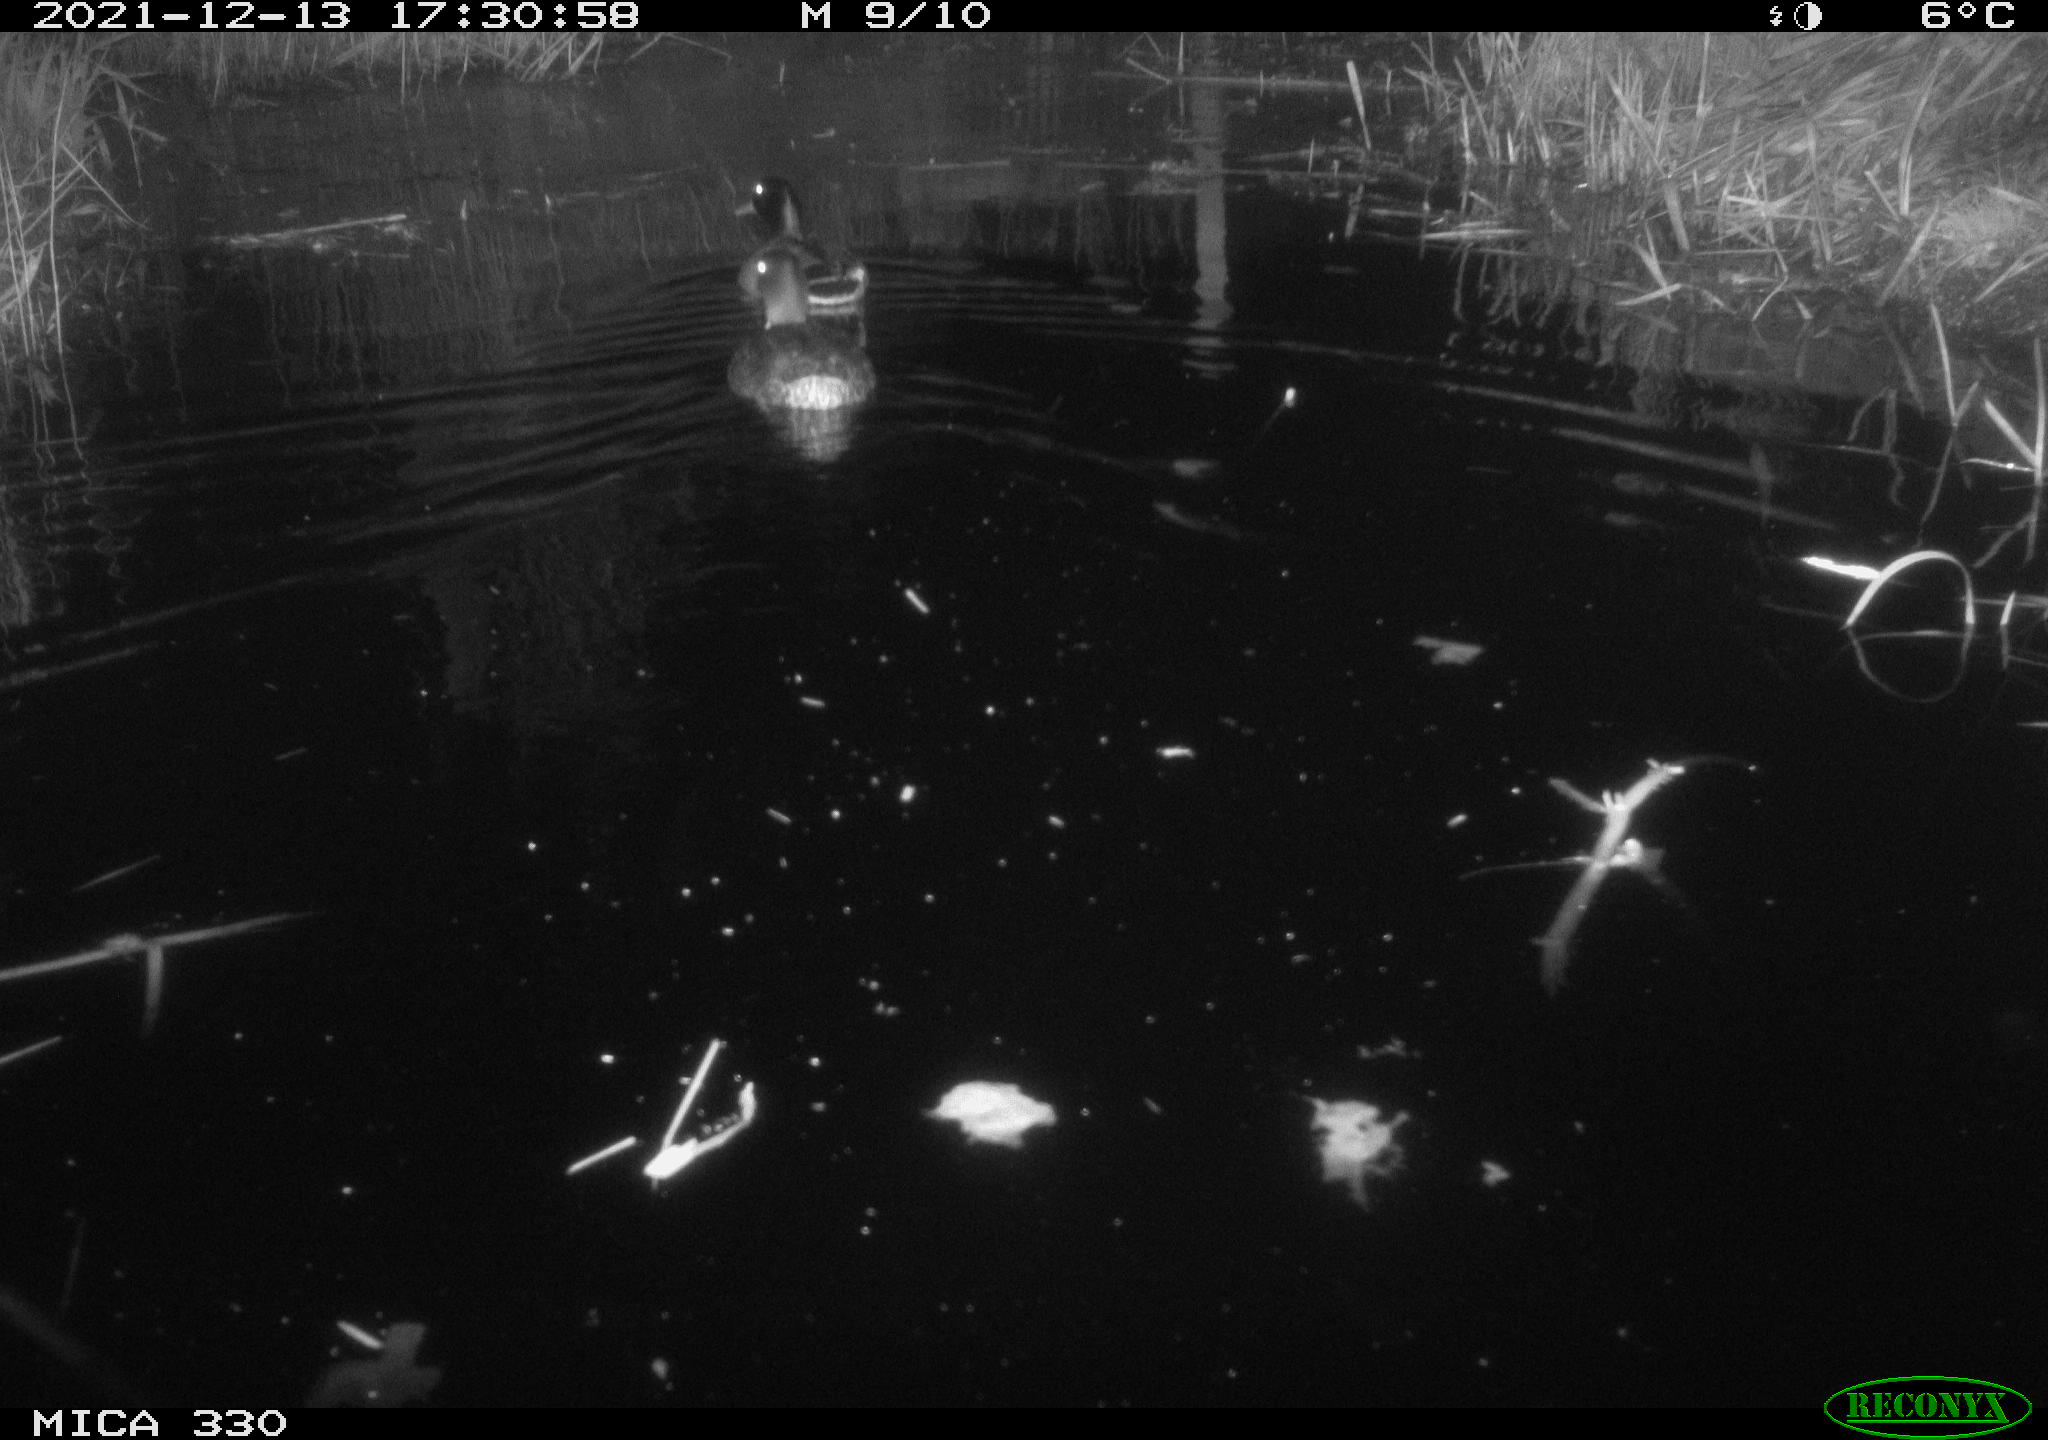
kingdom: Animalia
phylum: Chordata
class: Aves
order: Anseriformes
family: Anatidae
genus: Anas
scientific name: Anas platyrhynchos
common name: Mallard
